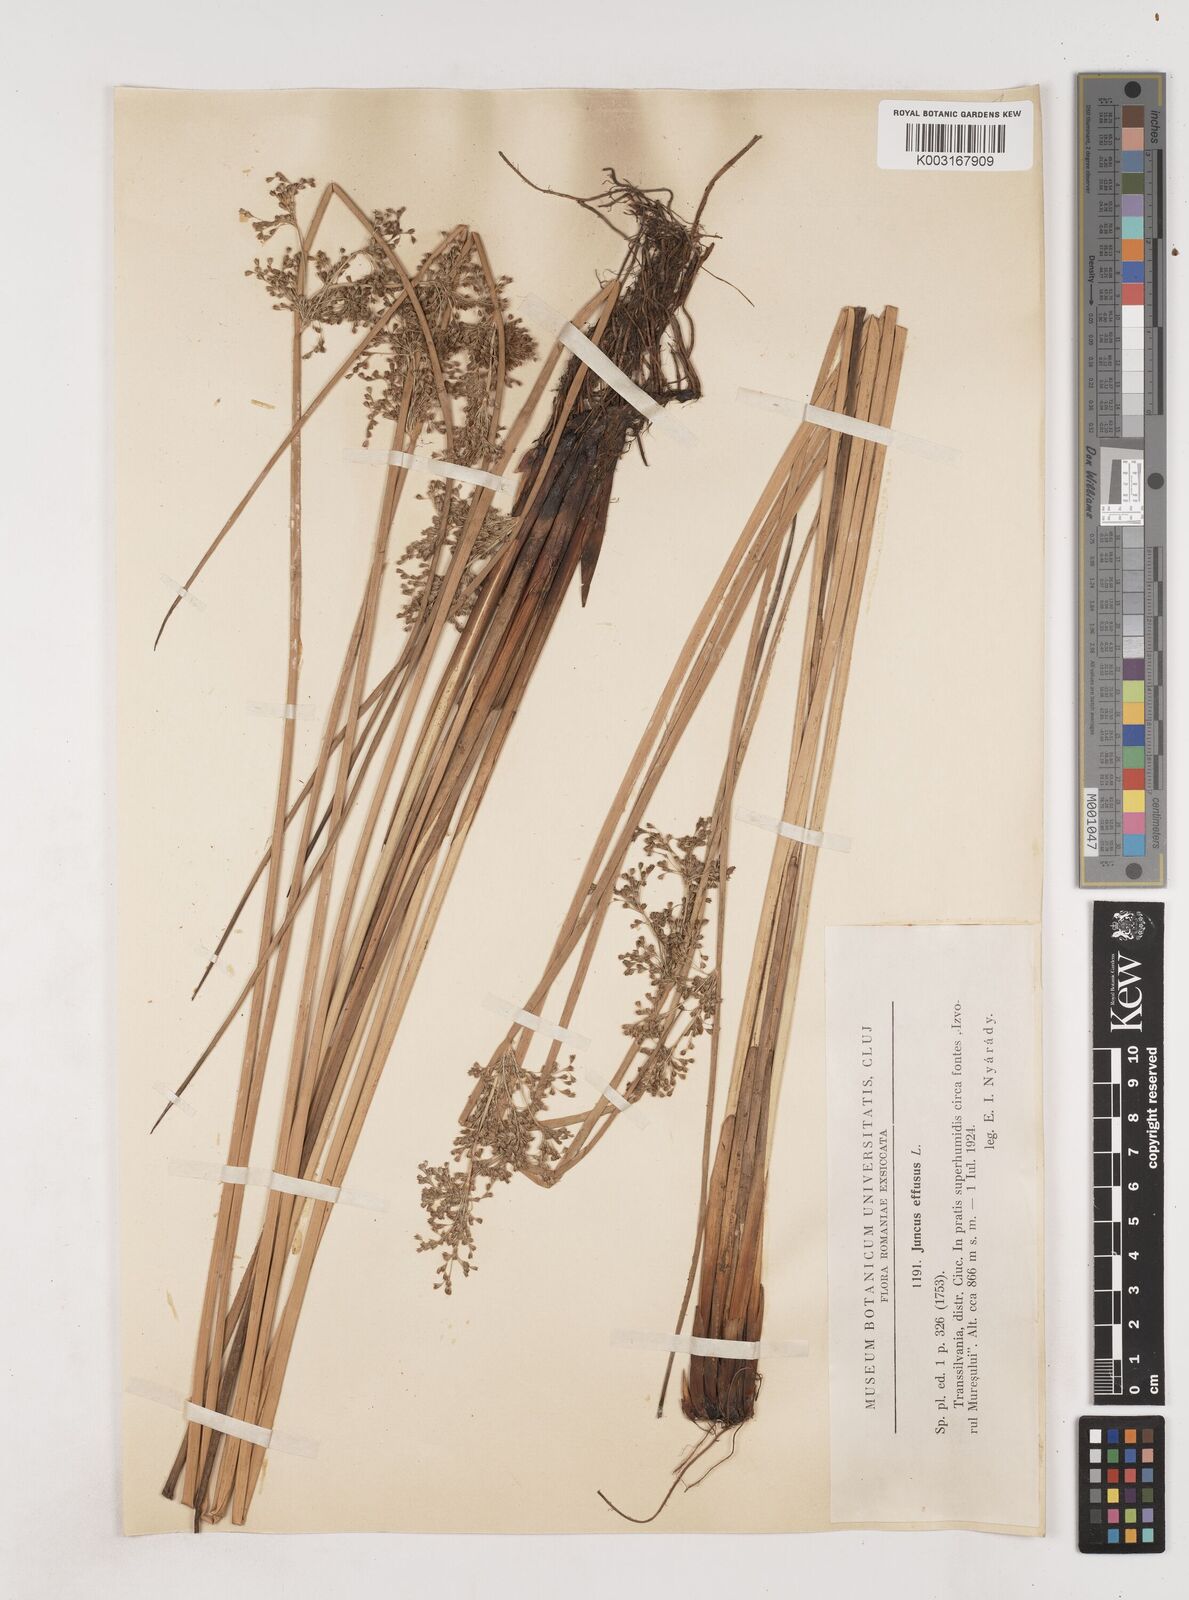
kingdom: Plantae
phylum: Tracheophyta
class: Liliopsida
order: Poales
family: Juncaceae
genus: Juncus
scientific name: Juncus effusus
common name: Soft rush
